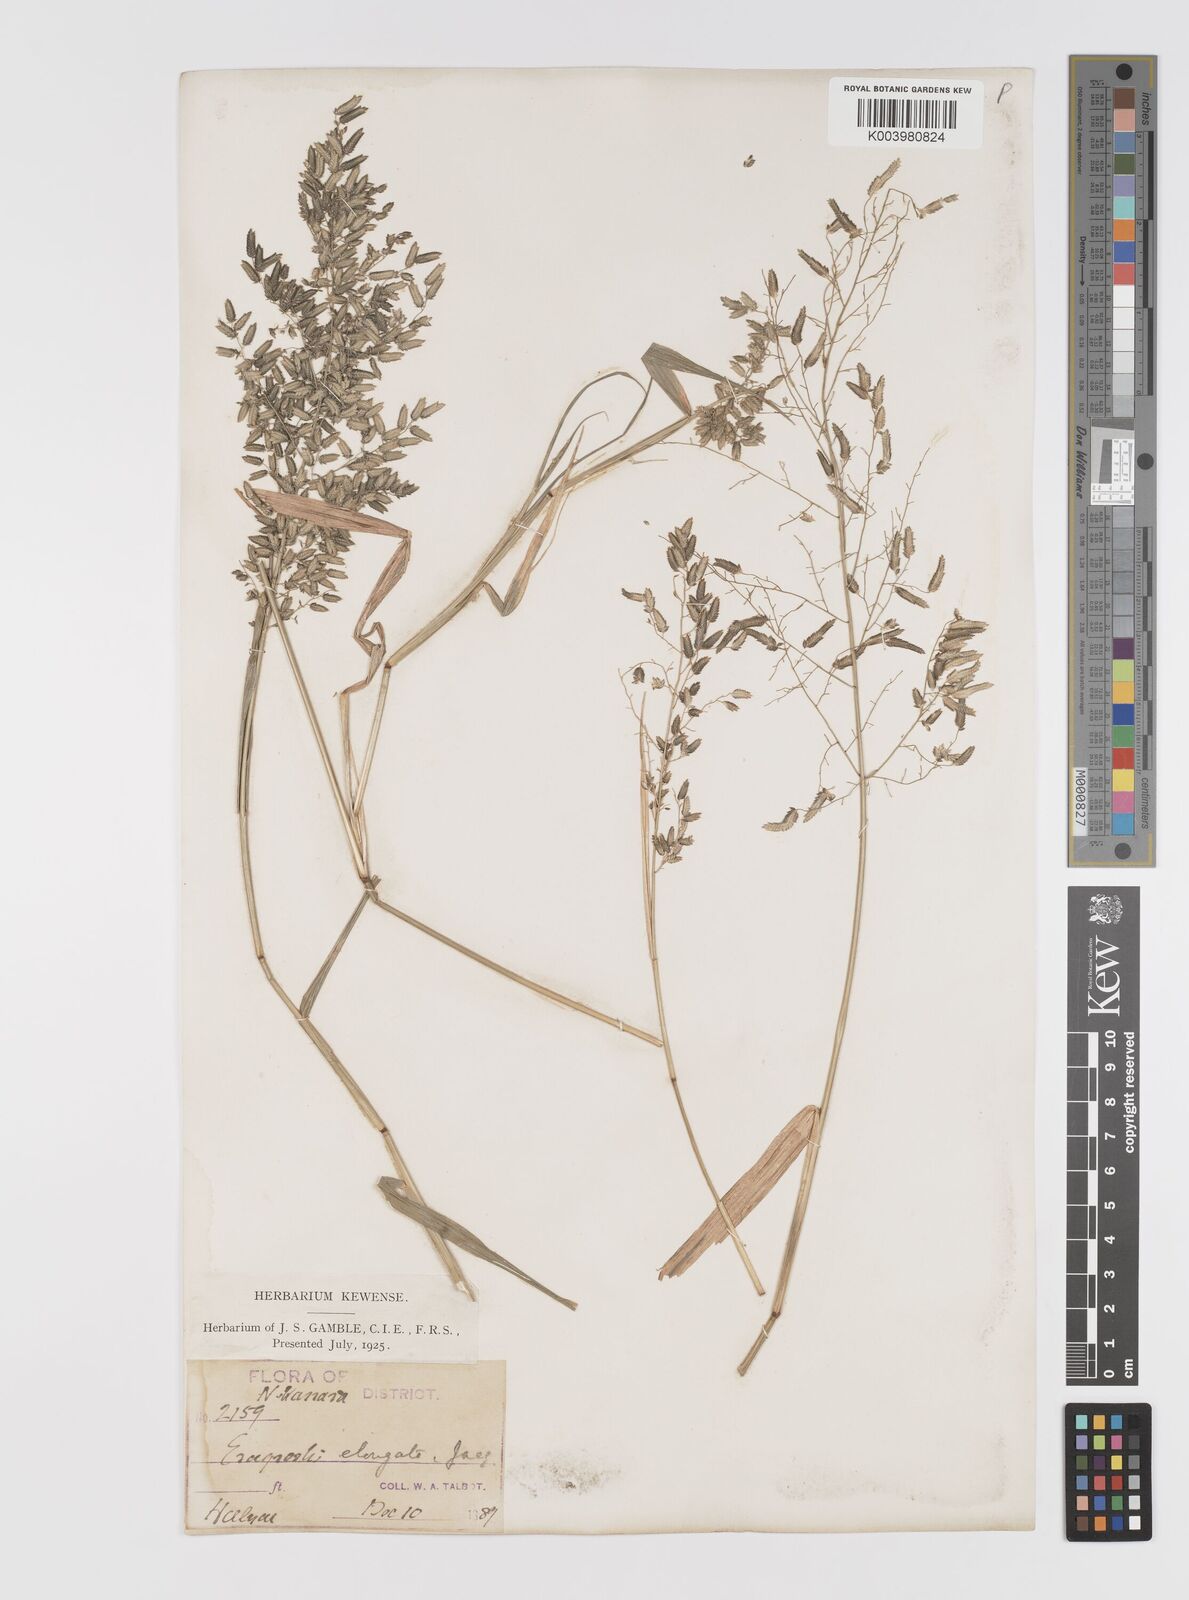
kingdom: Plantae
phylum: Tracheophyta
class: Liliopsida
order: Poales
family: Poaceae
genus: Eragrostis
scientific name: Eragrostis cilianensis
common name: Stinkgrass
